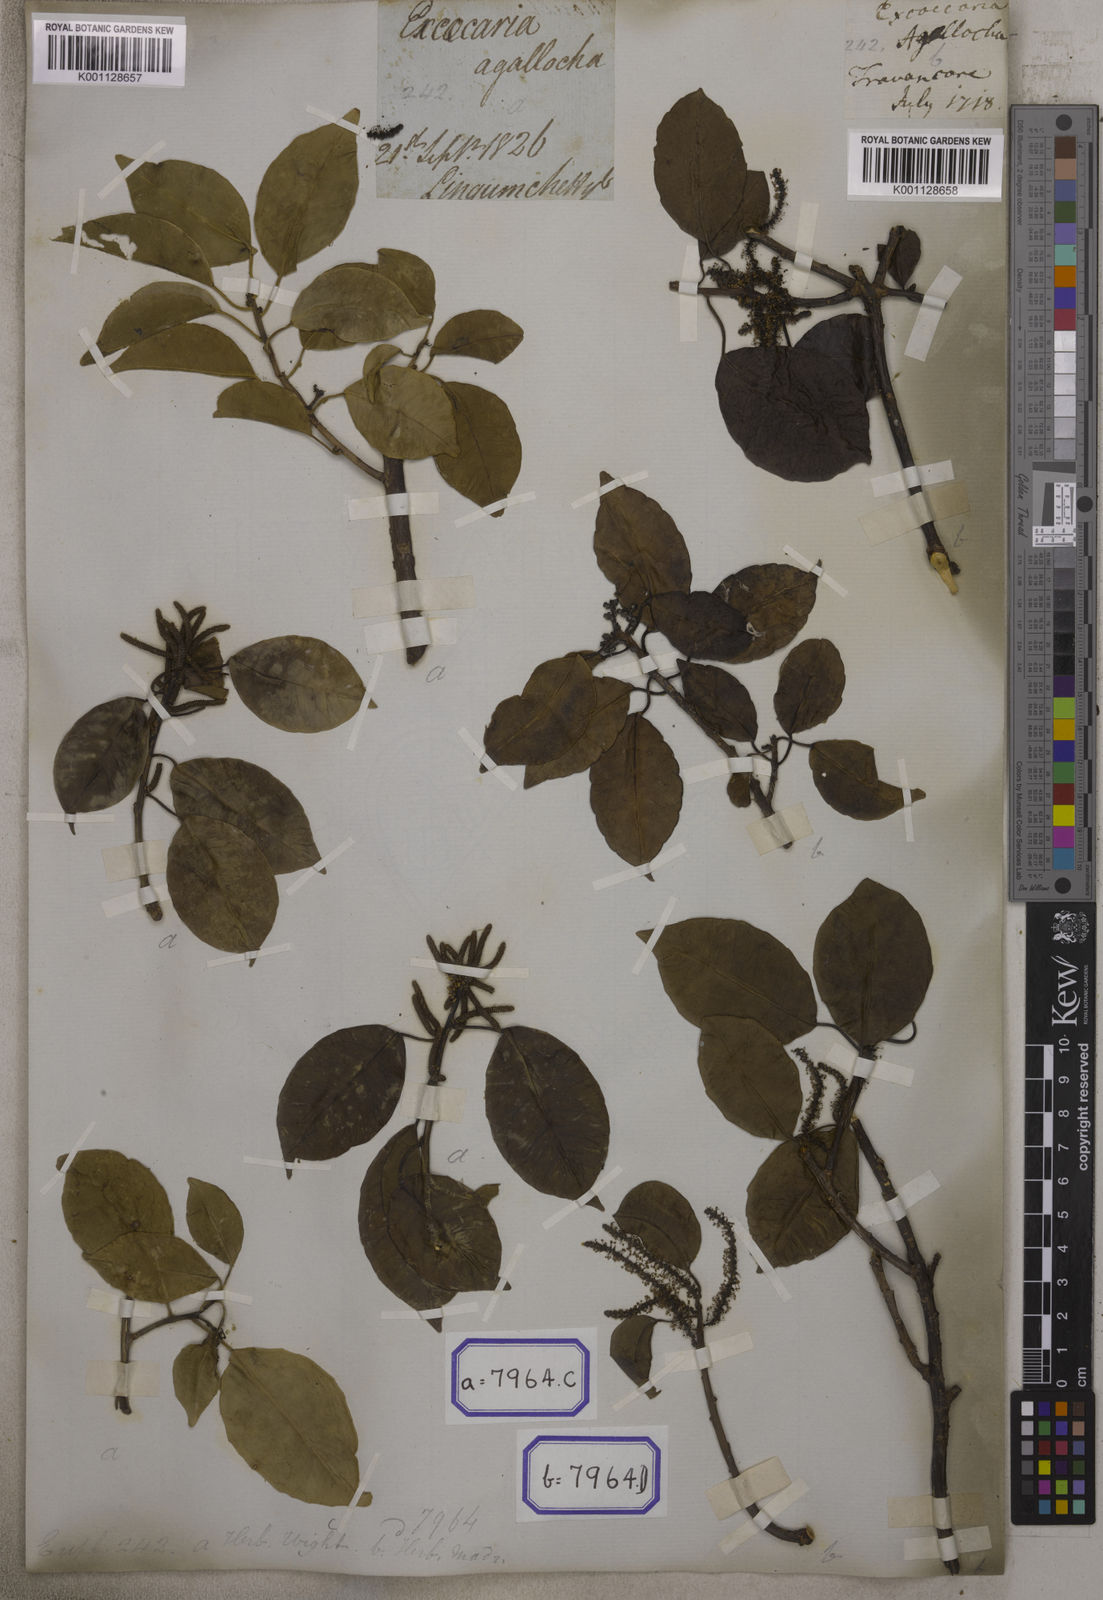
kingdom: Plantae
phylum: Tracheophyta
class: Magnoliopsida
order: Malpighiales
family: Euphorbiaceae
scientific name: Euphorbiaceae
